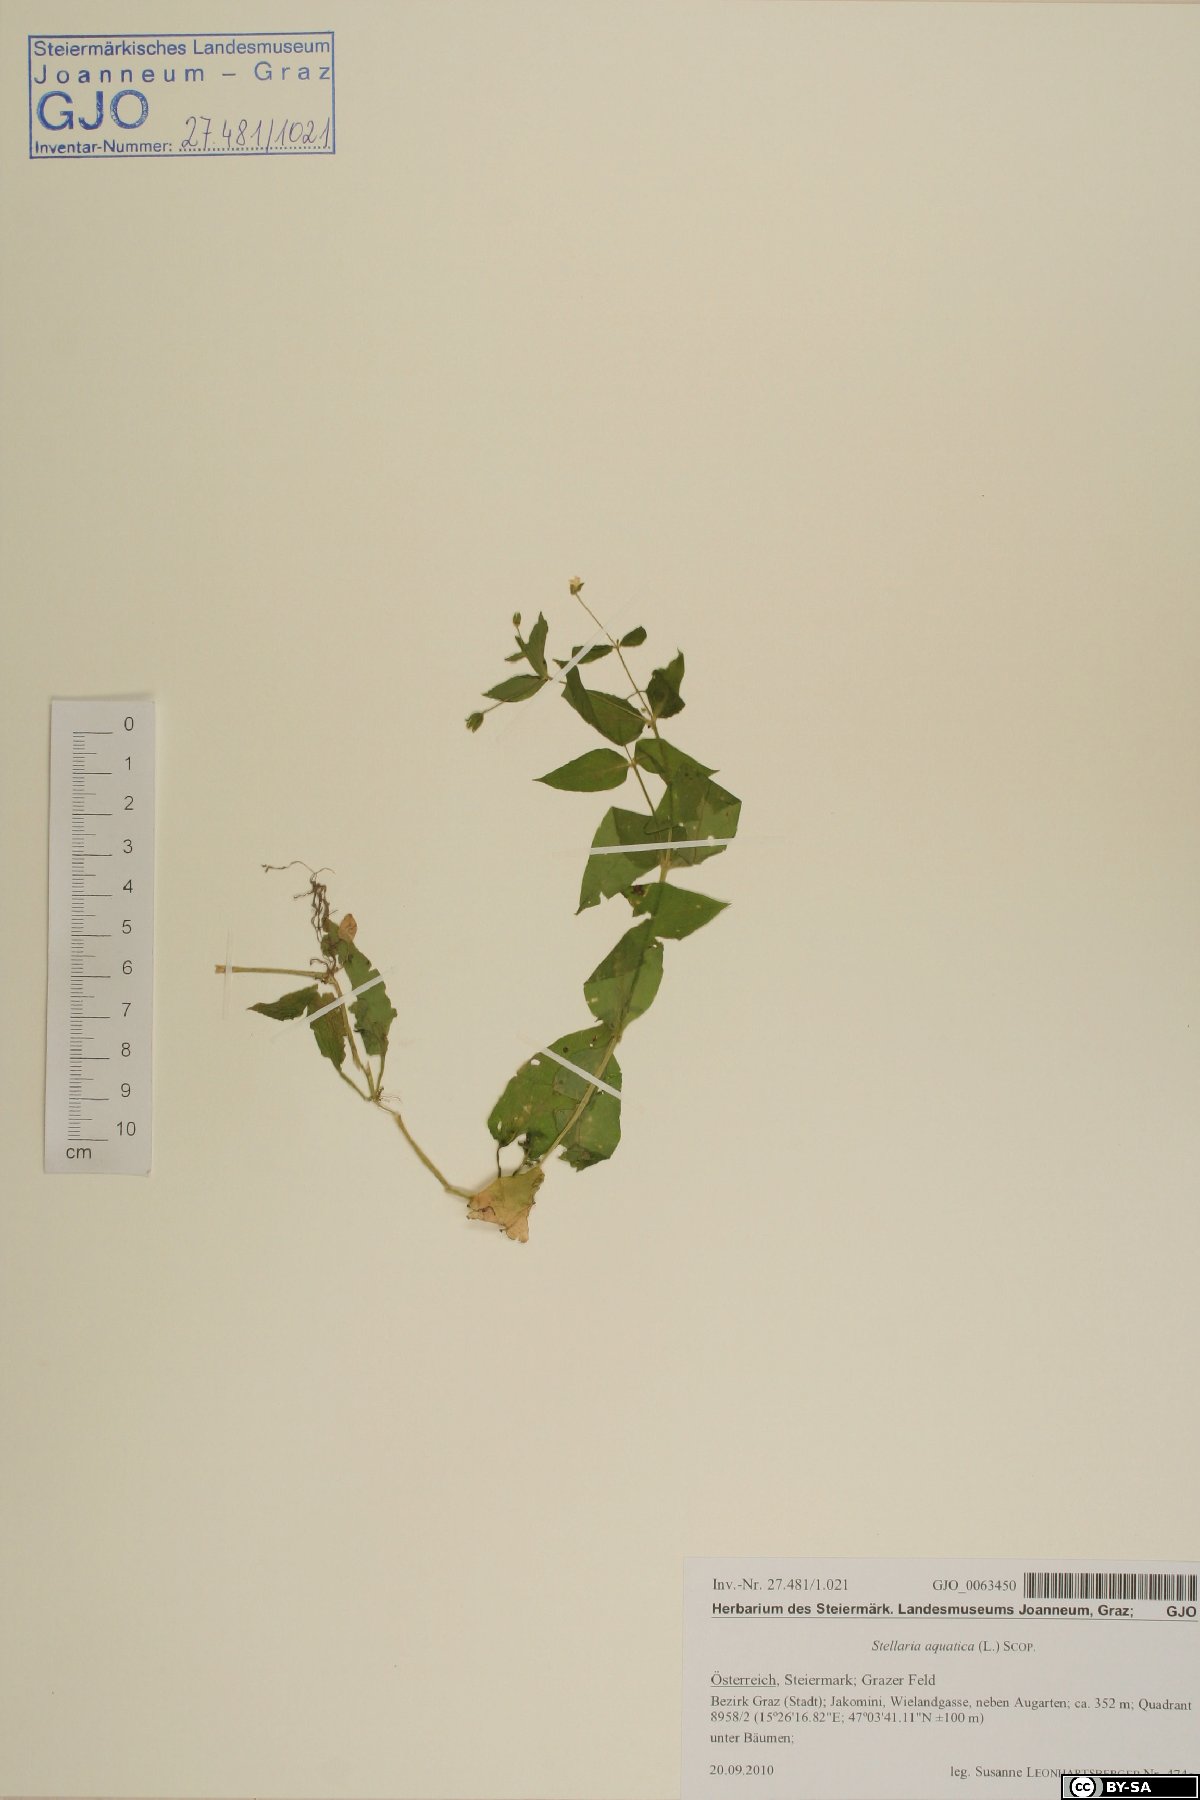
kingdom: Plantae
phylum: Tracheophyta
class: Magnoliopsida
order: Caryophyllales
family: Caryophyllaceae
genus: Stellaria
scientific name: Stellaria aquatica
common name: Water chickweed
